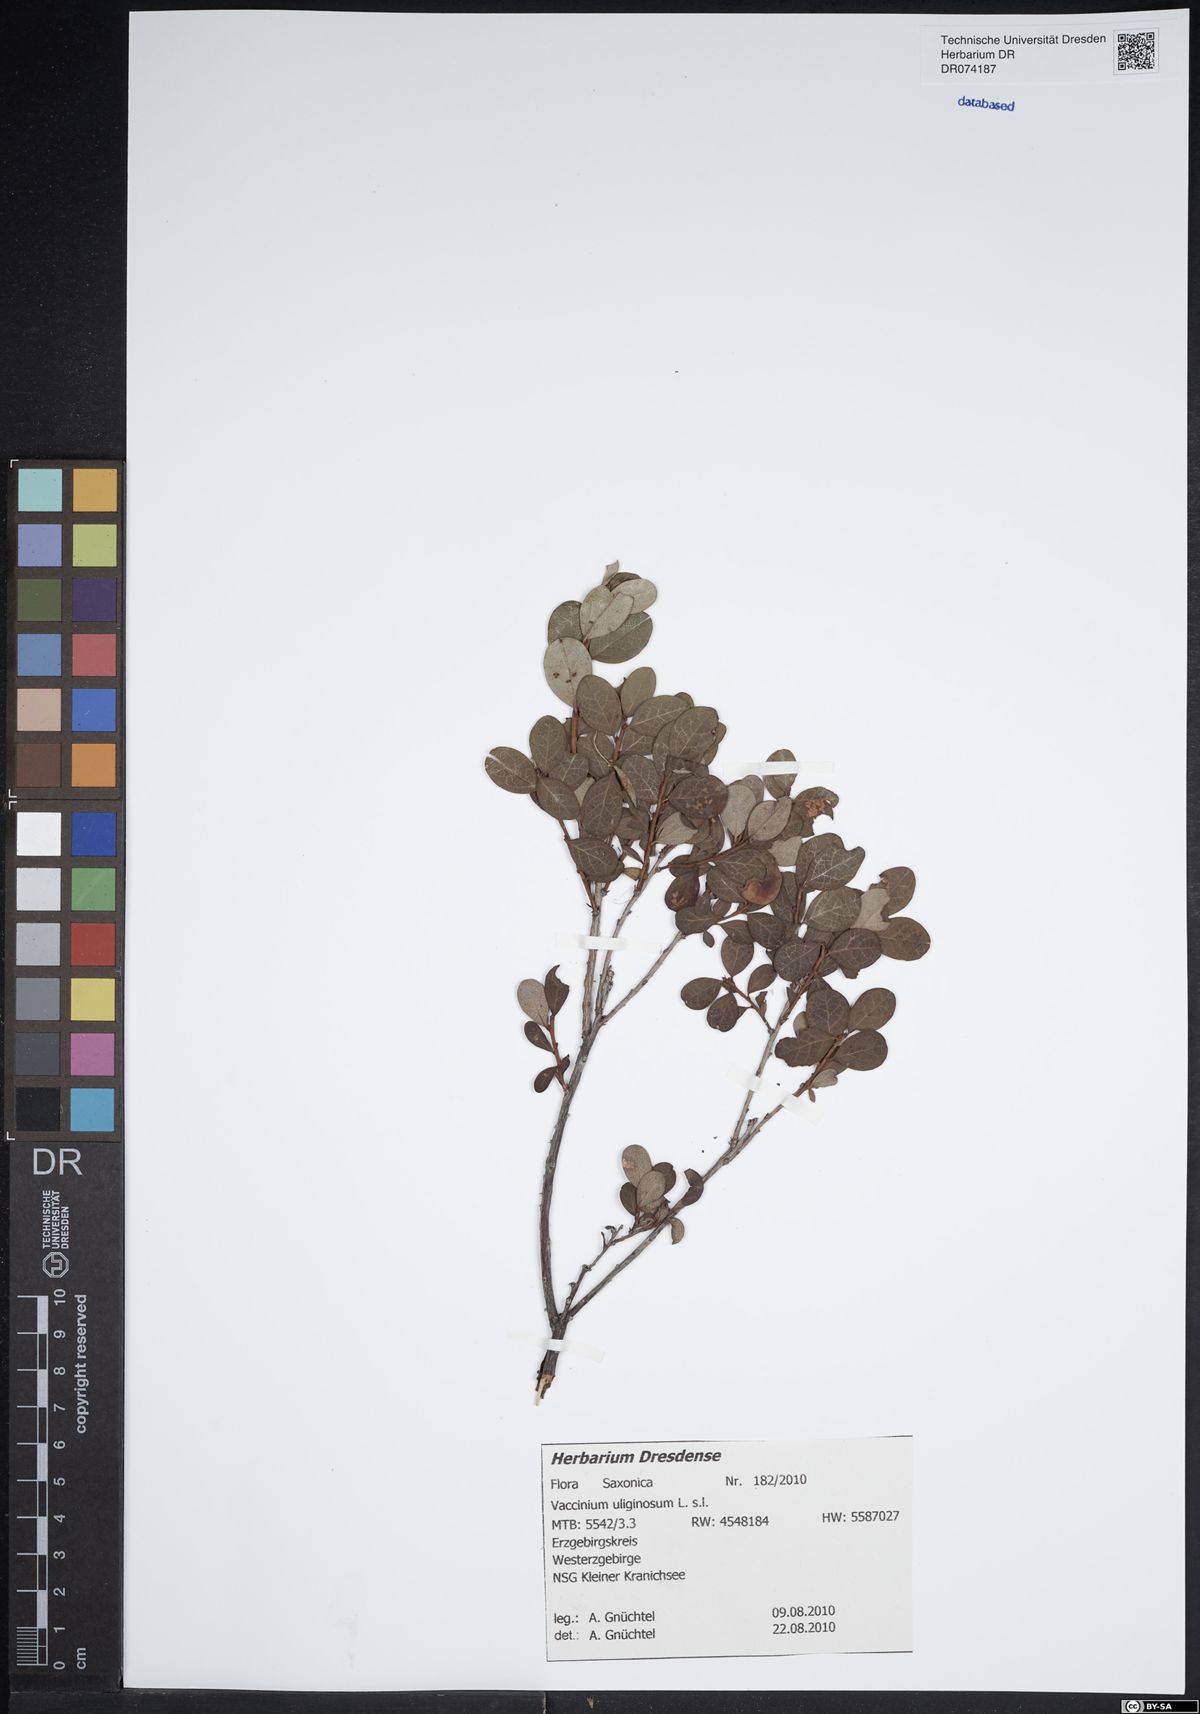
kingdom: Plantae
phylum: Tracheophyta
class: Magnoliopsida
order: Ericales
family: Ericaceae
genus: Vaccinium
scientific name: Vaccinium uliginosum
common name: Bog bilberry
